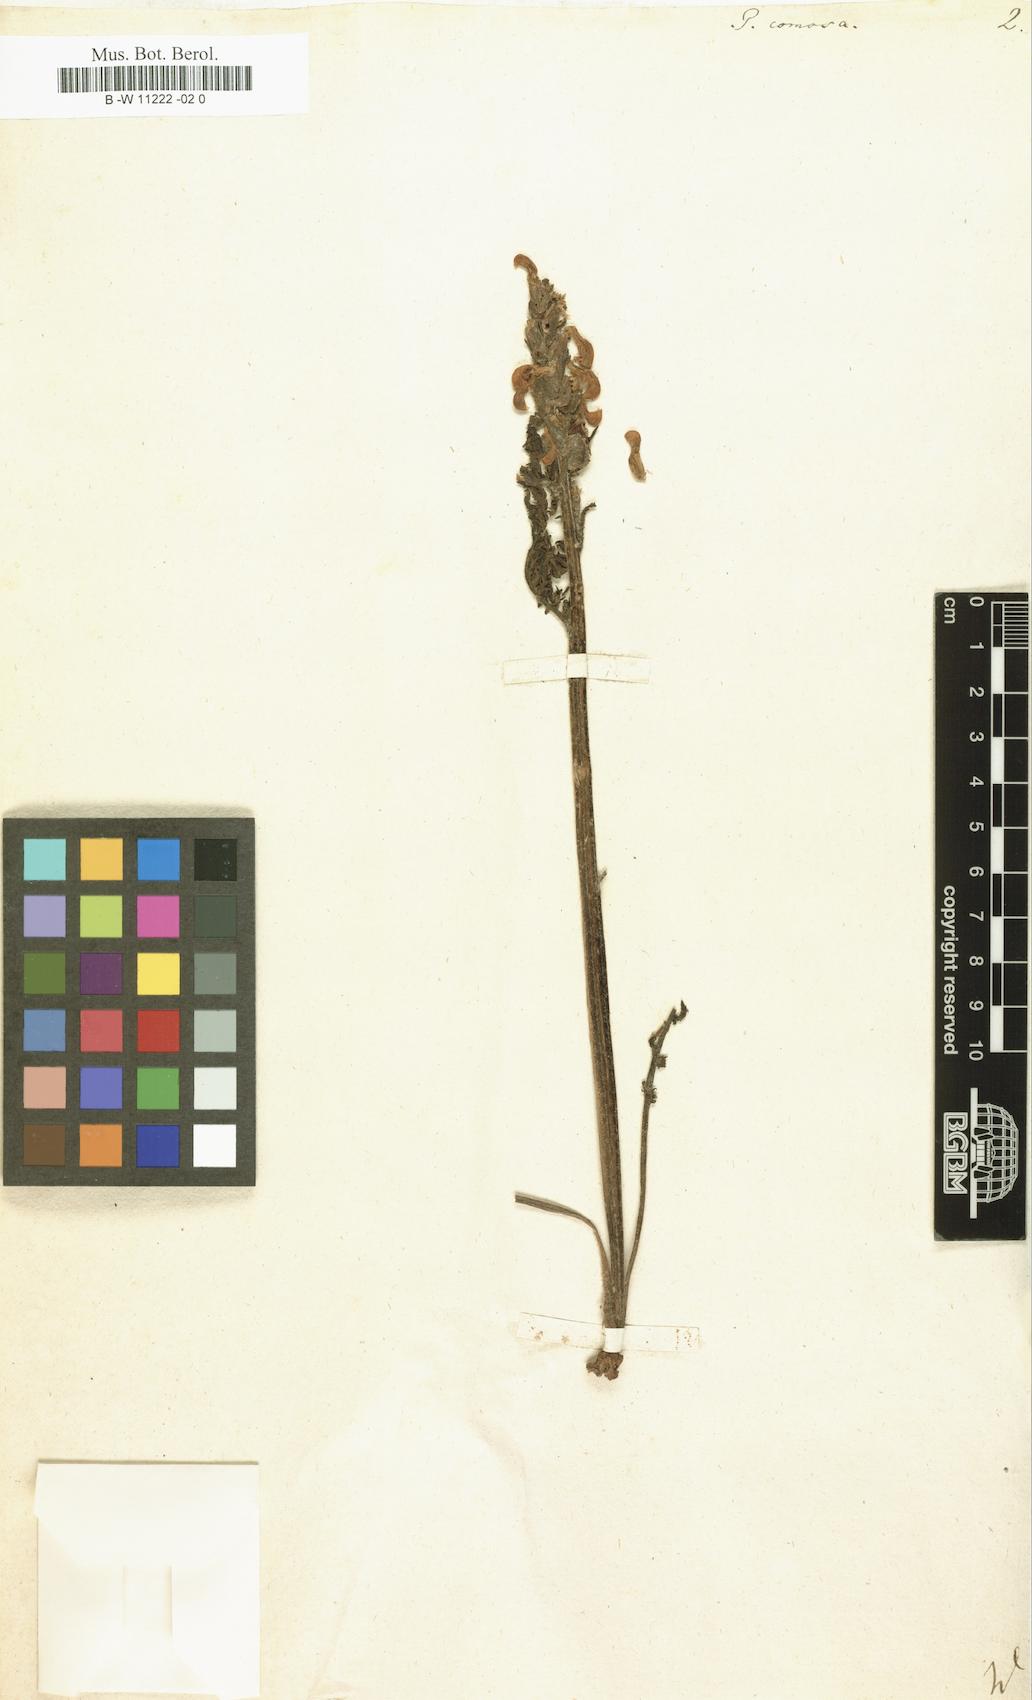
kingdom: Plantae
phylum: Tracheophyta
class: Magnoliopsida
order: Lamiales
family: Orobanchaceae
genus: Pedicularis
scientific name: Pedicularis comosa
